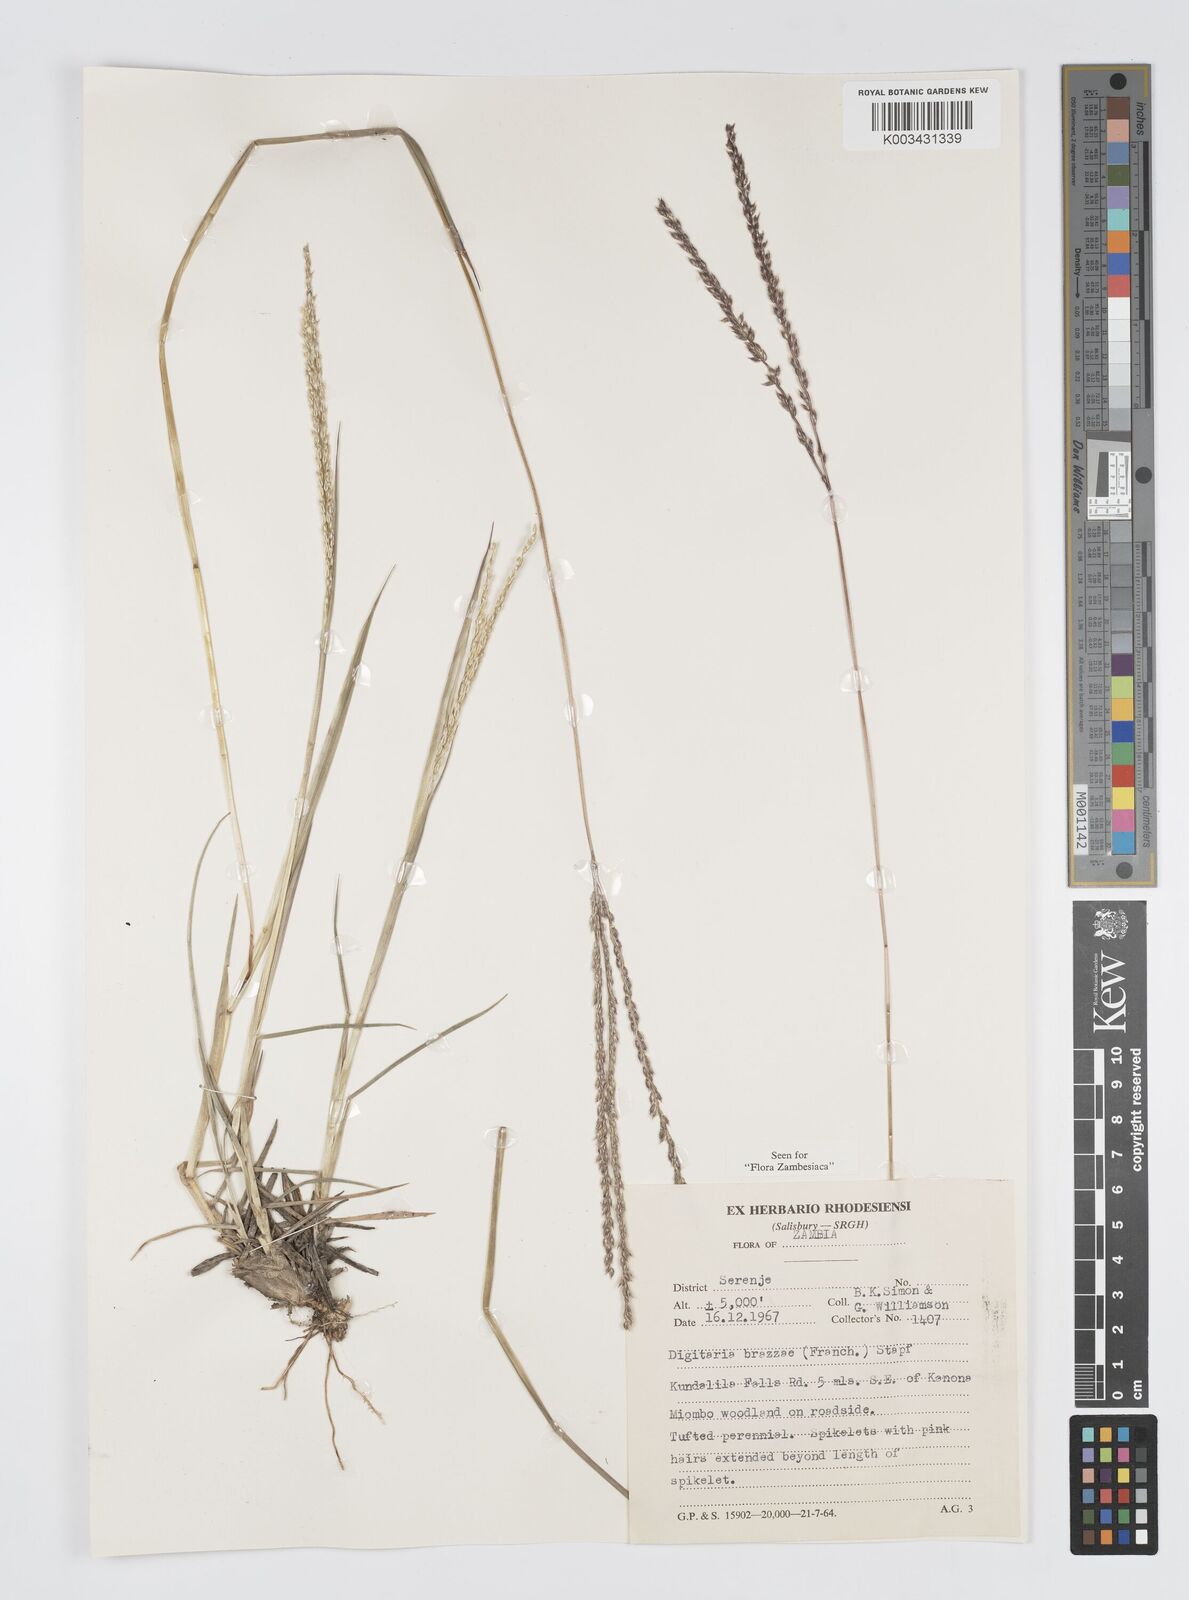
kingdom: Plantae
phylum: Tracheophyta
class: Liliopsida
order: Poales
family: Poaceae
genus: Digitaria
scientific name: Digitaria brazzae
